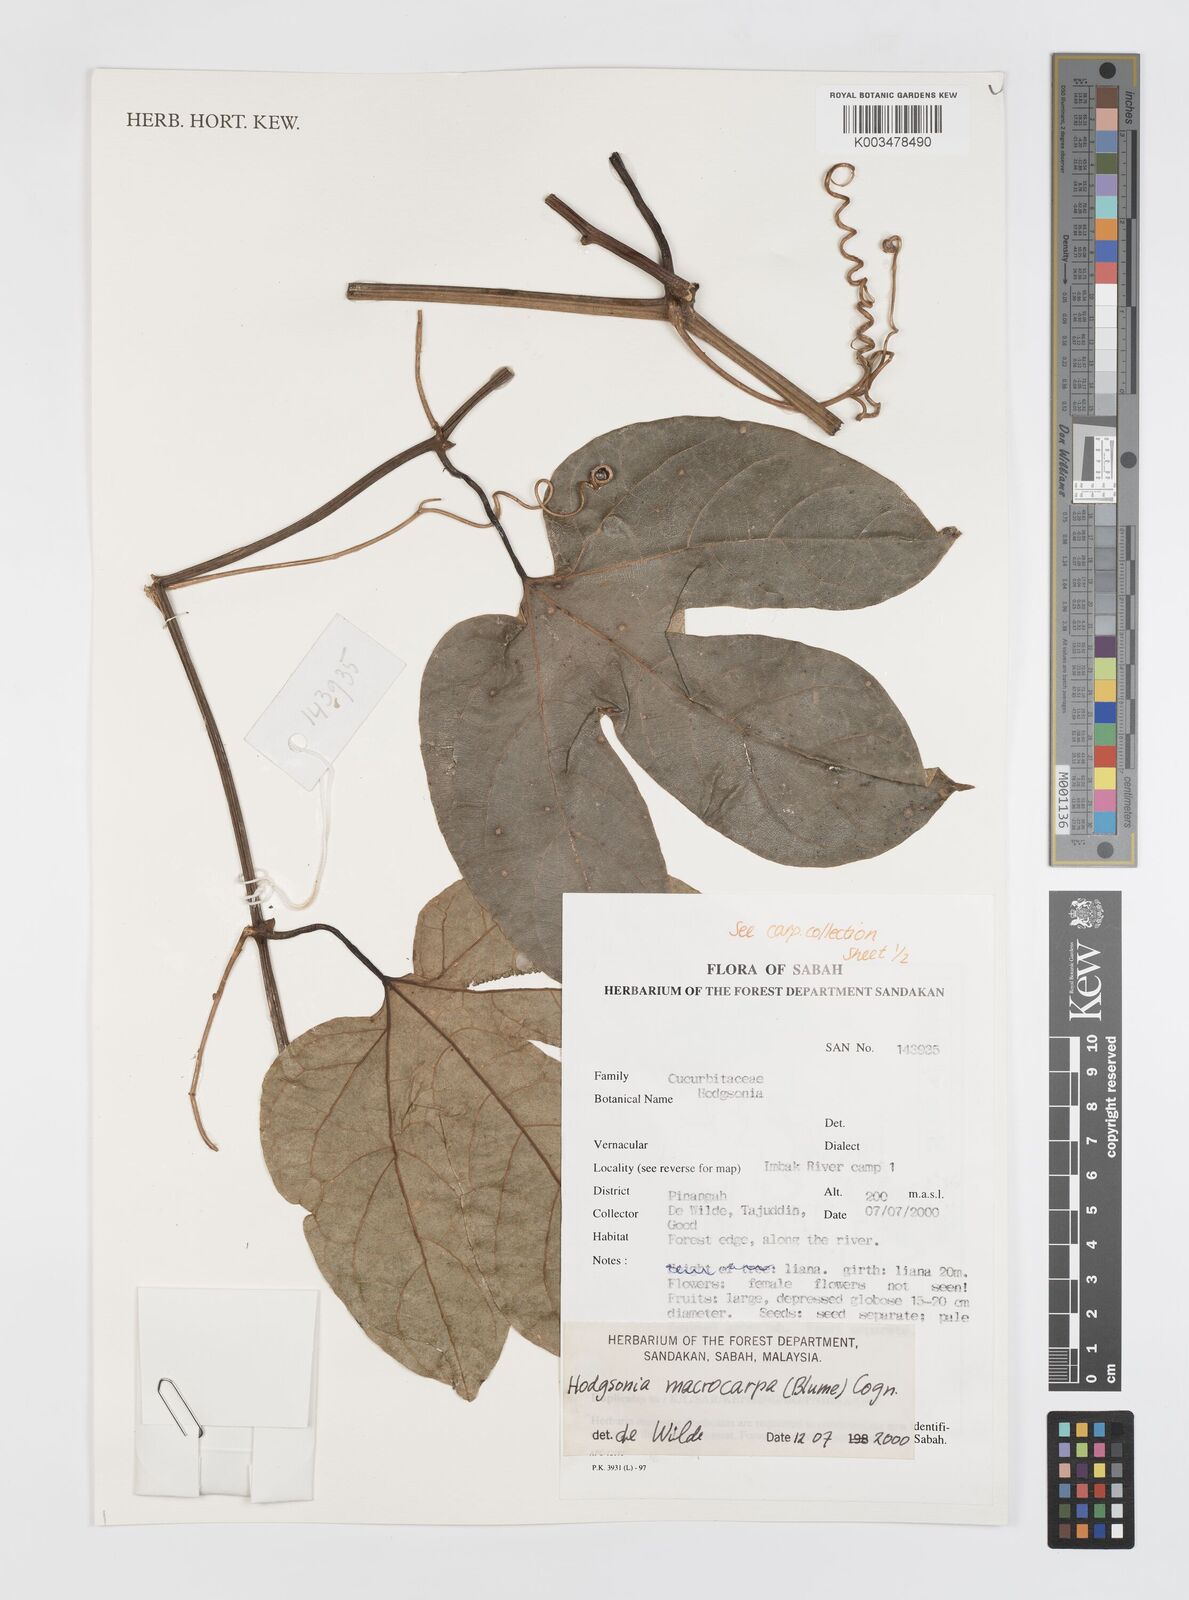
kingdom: Plantae
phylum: Tracheophyta
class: Magnoliopsida
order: Cucurbitales
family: Cucurbitaceae
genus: Hodgsonia
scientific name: Hodgsonia macrocarpa
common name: Chinese lardfruit
